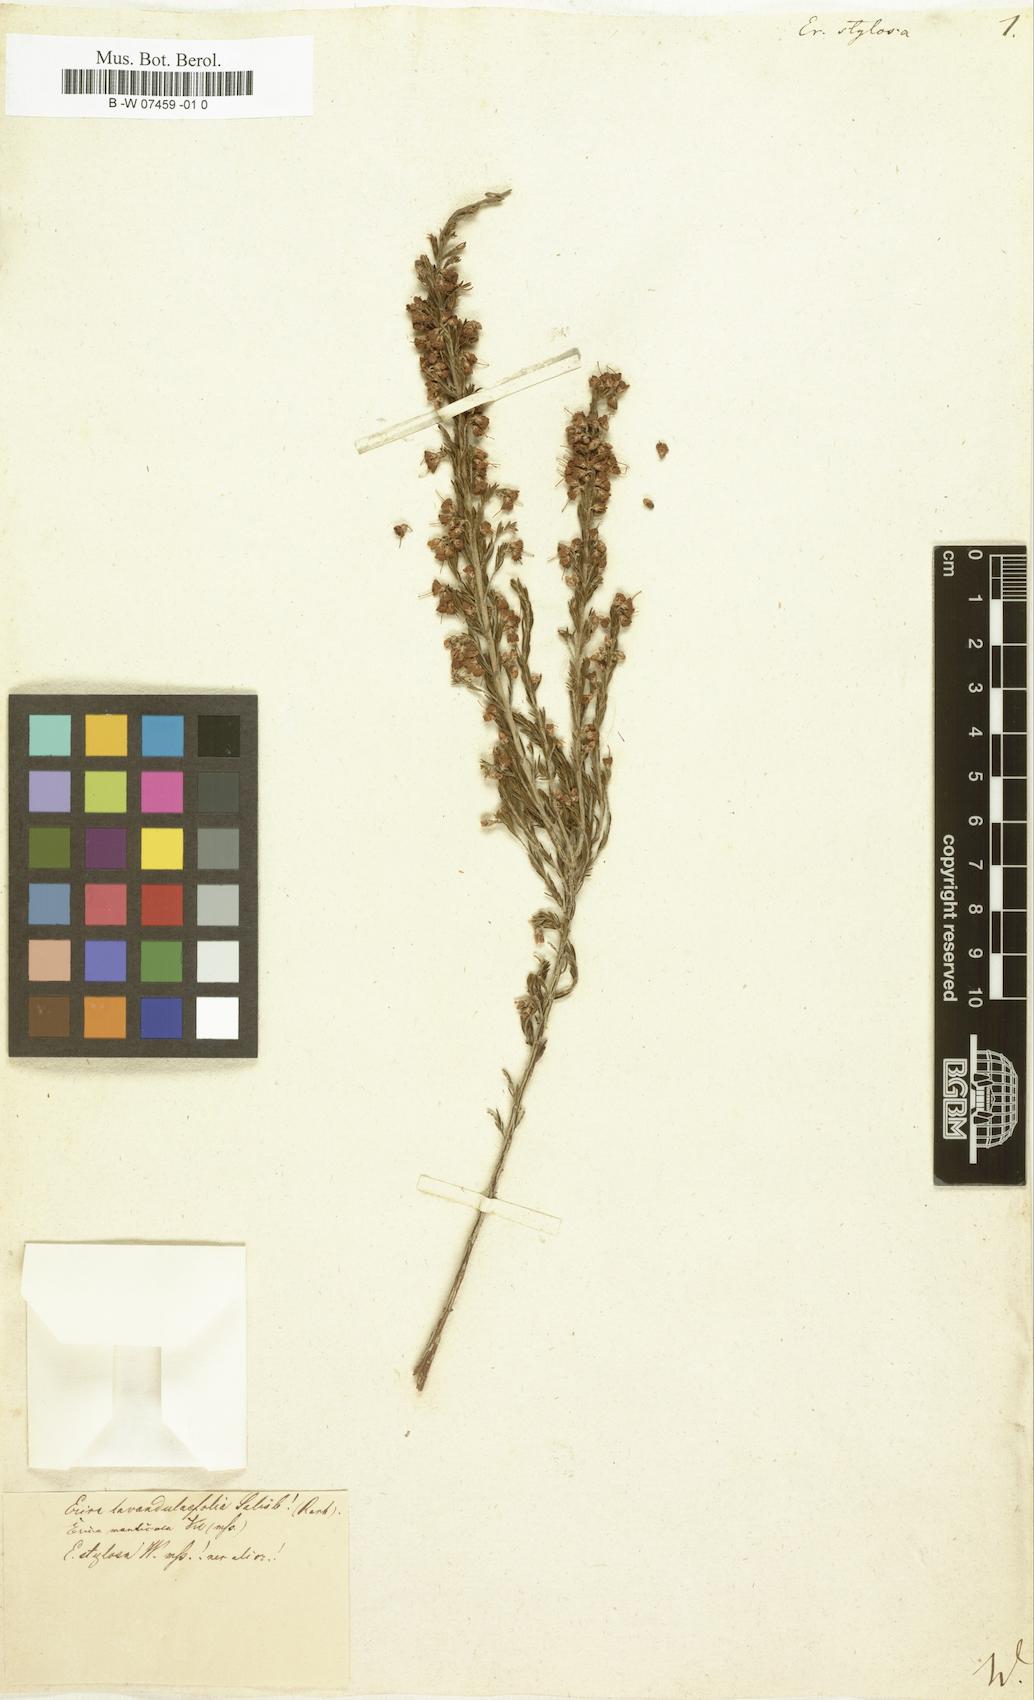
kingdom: Plantae
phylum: Tracheophyta
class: Magnoliopsida
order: Ericales
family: Ericaceae
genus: Erica
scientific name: Erica arborea
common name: Tree heath
